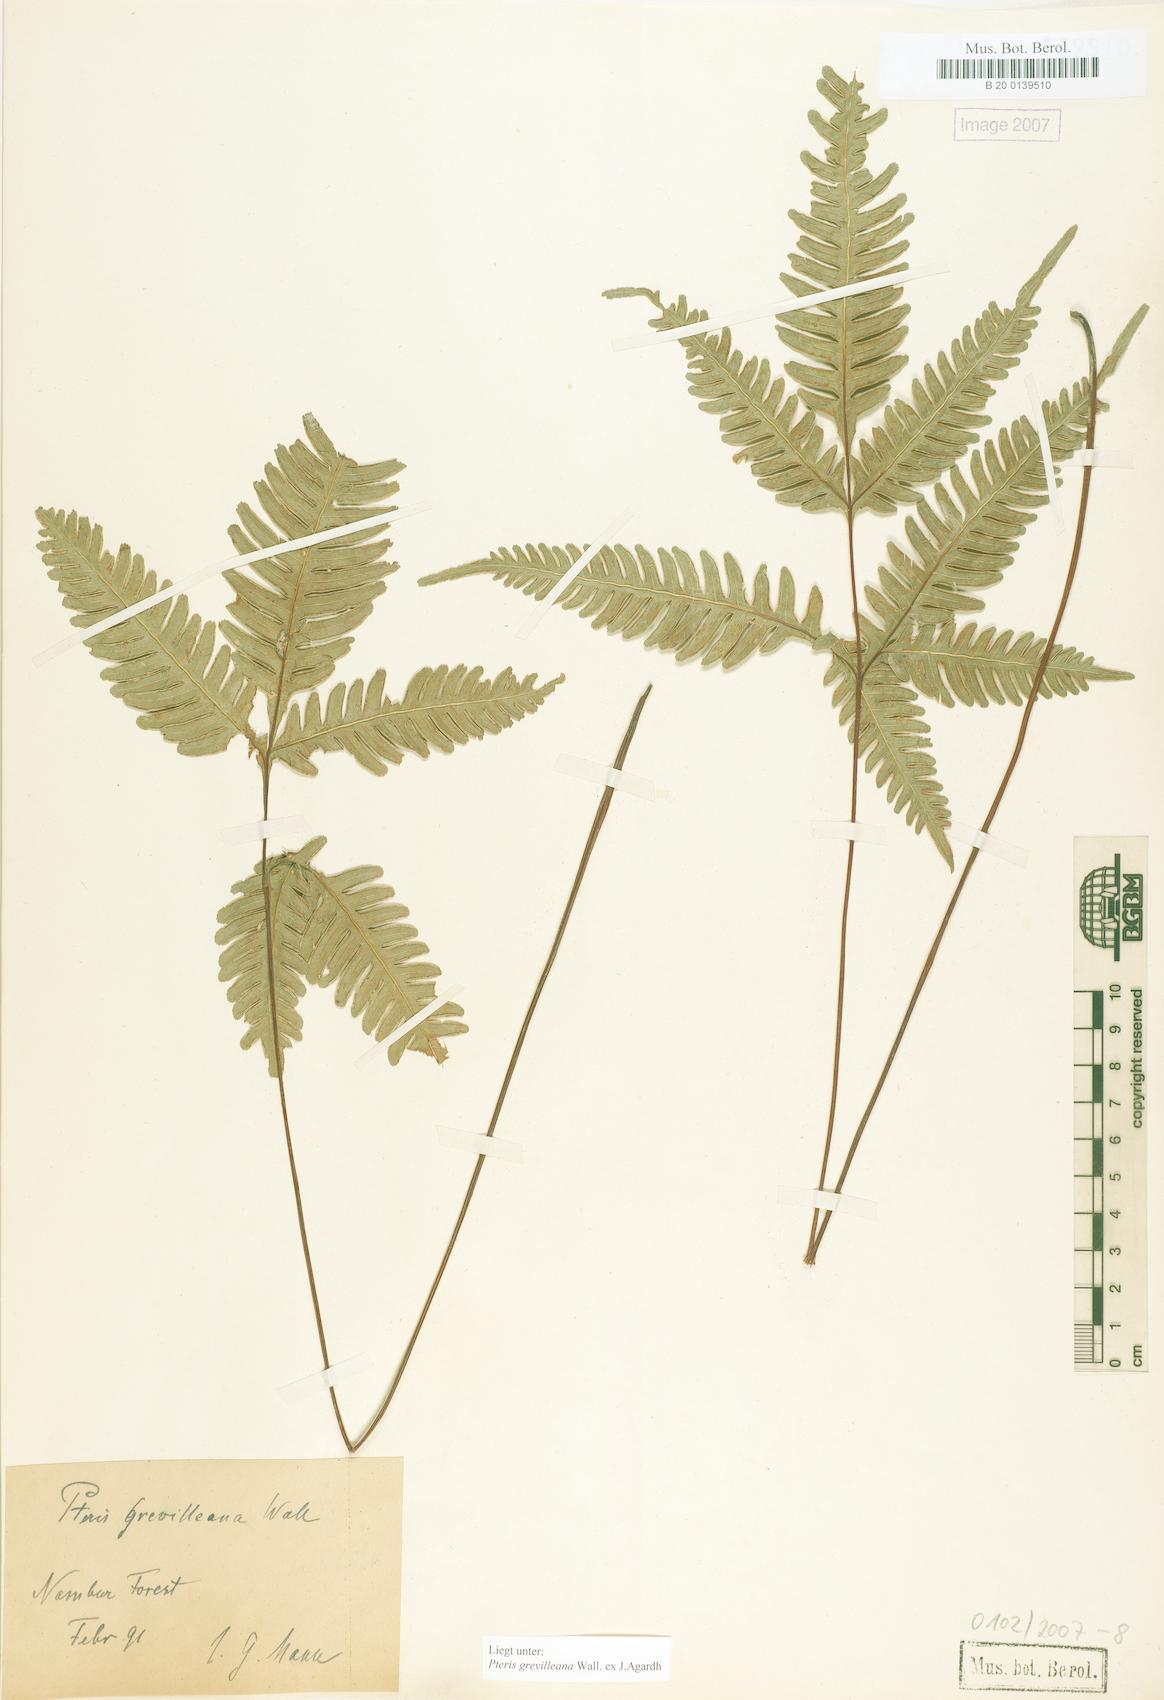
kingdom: Plantae
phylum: Tracheophyta
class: Polypodiopsida
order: Polypodiales
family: Pteridaceae
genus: Pteris
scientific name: Pteris grevilleana
